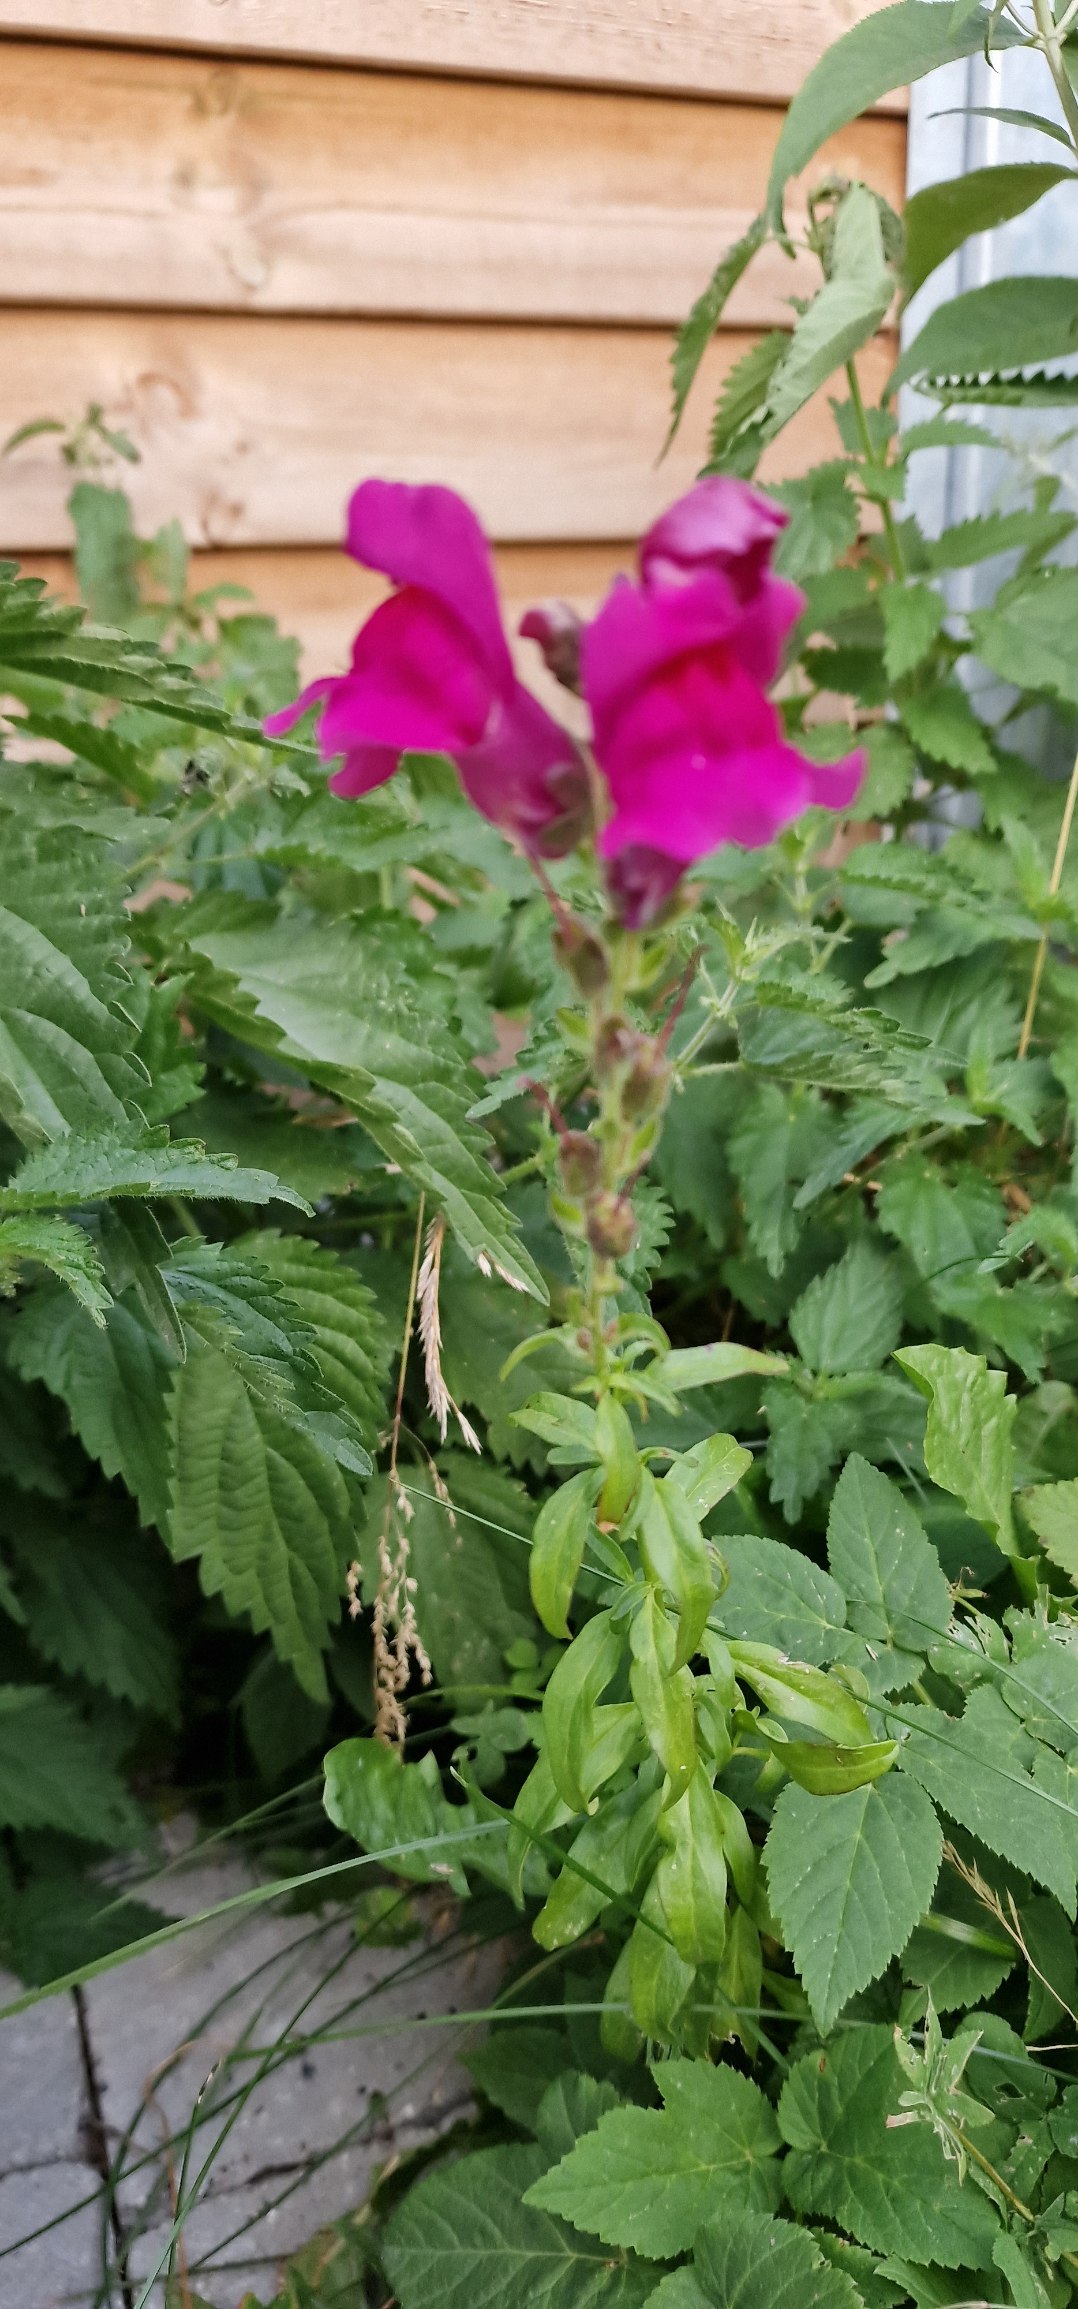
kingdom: Plantae
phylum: Tracheophyta
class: Magnoliopsida
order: Lamiales
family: Plantaginaceae
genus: Antirrhinum
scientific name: Antirrhinum majus
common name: Have-løvemund
